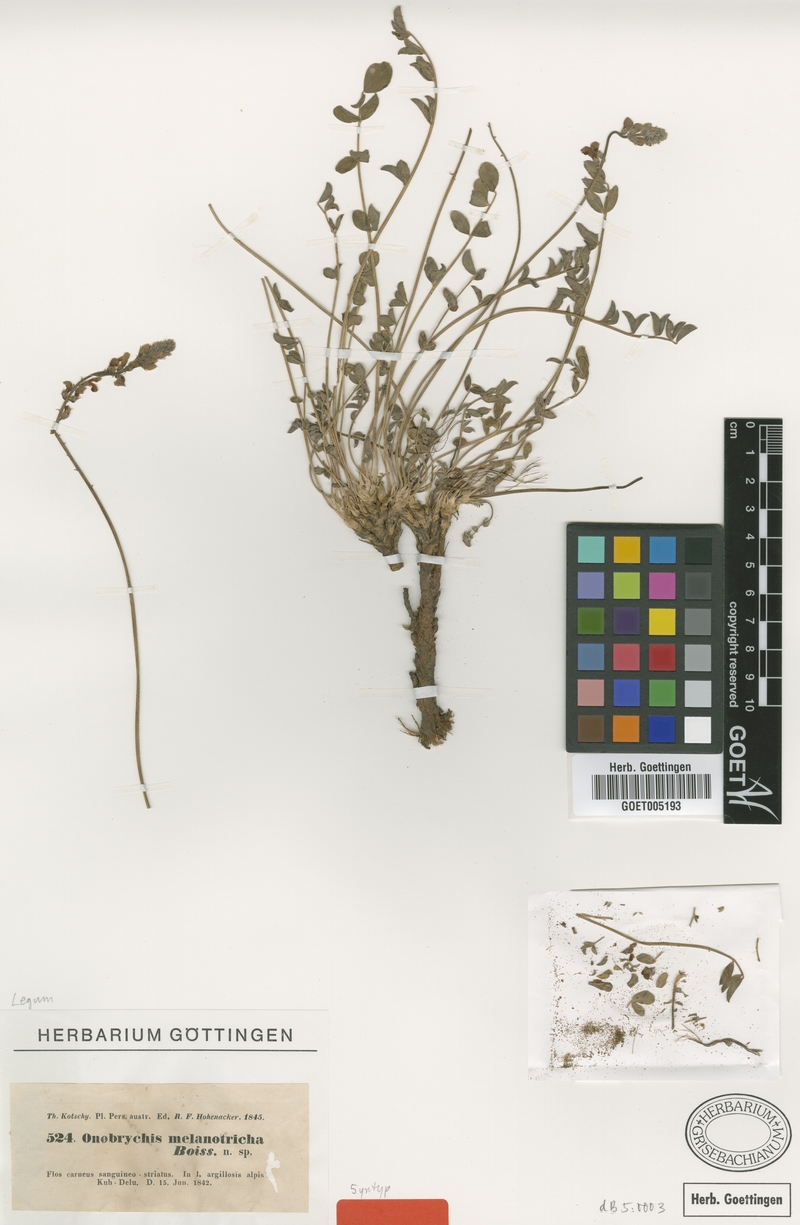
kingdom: Plantae
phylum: Tracheophyta
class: Magnoliopsida
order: Fabales
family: Fabaceae
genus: Onobrychis
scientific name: Onobrychis melanotricha
